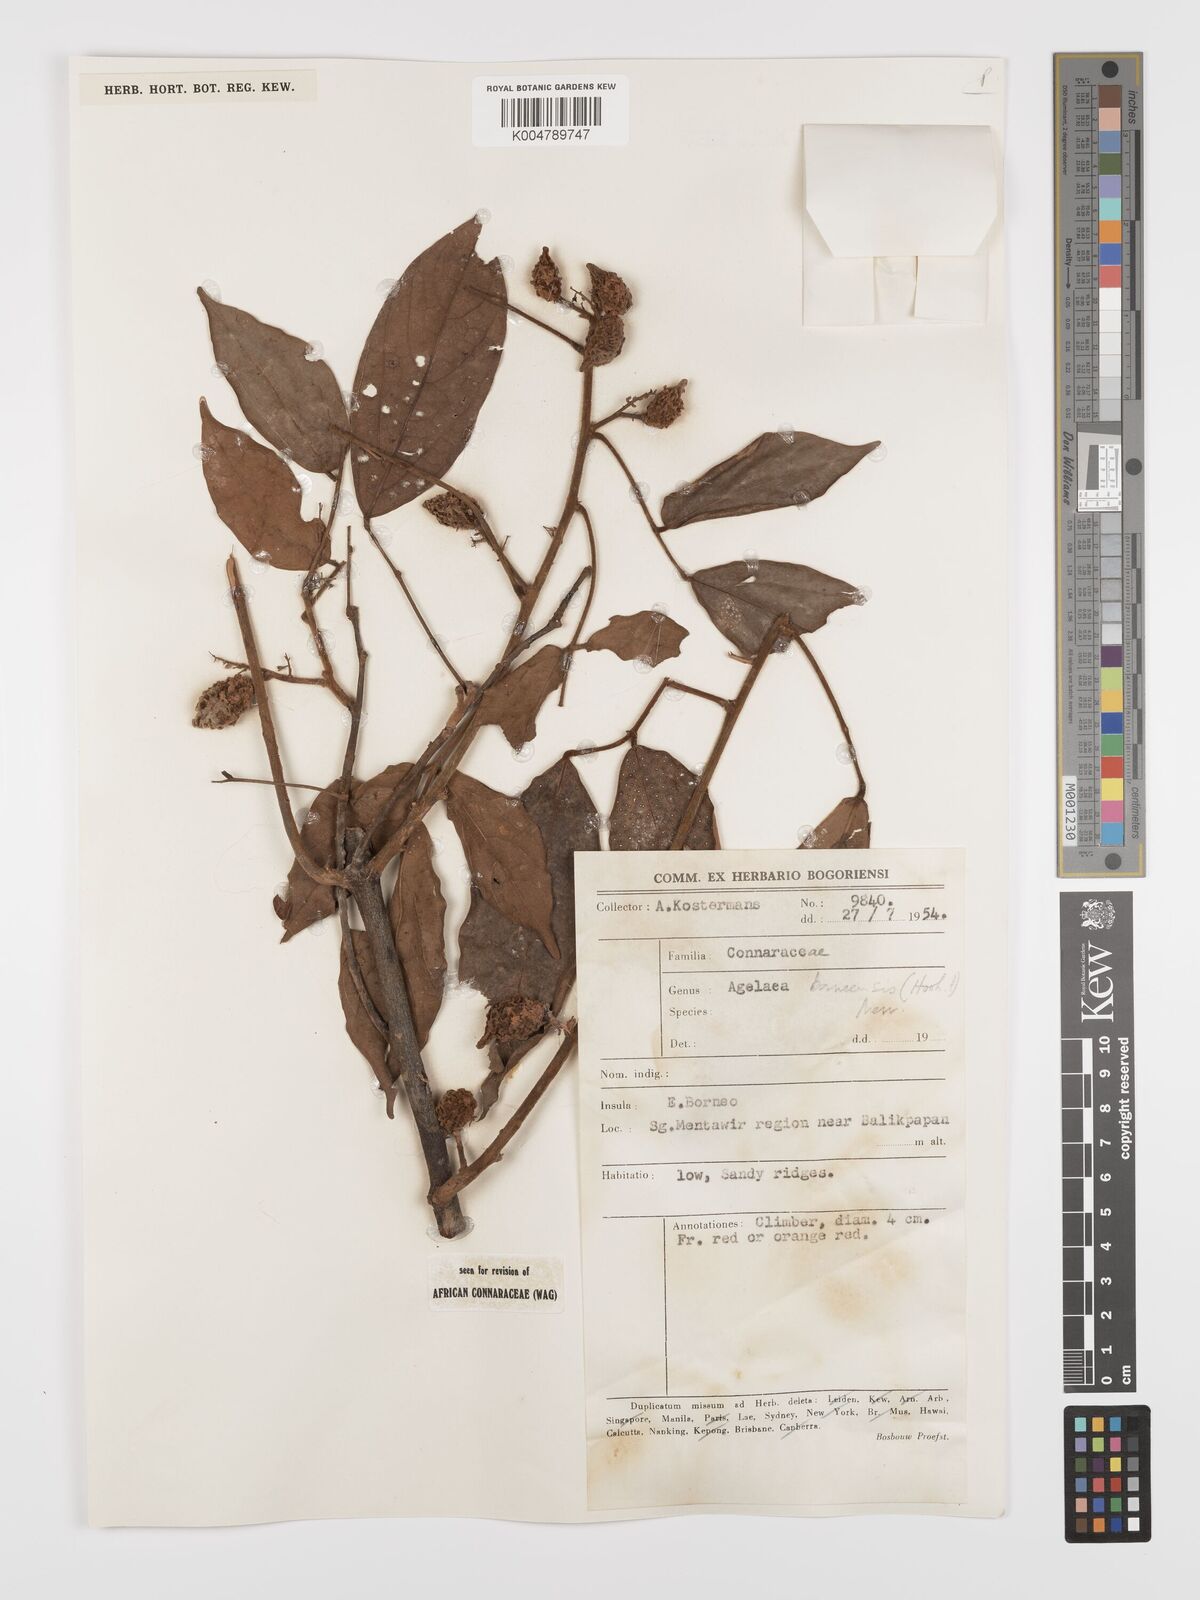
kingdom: Plantae
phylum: Tracheophyta
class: Magnoliopsida
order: Oxalidales
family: Connaraceae
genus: Agelaea
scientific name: Agelaea borneensis
